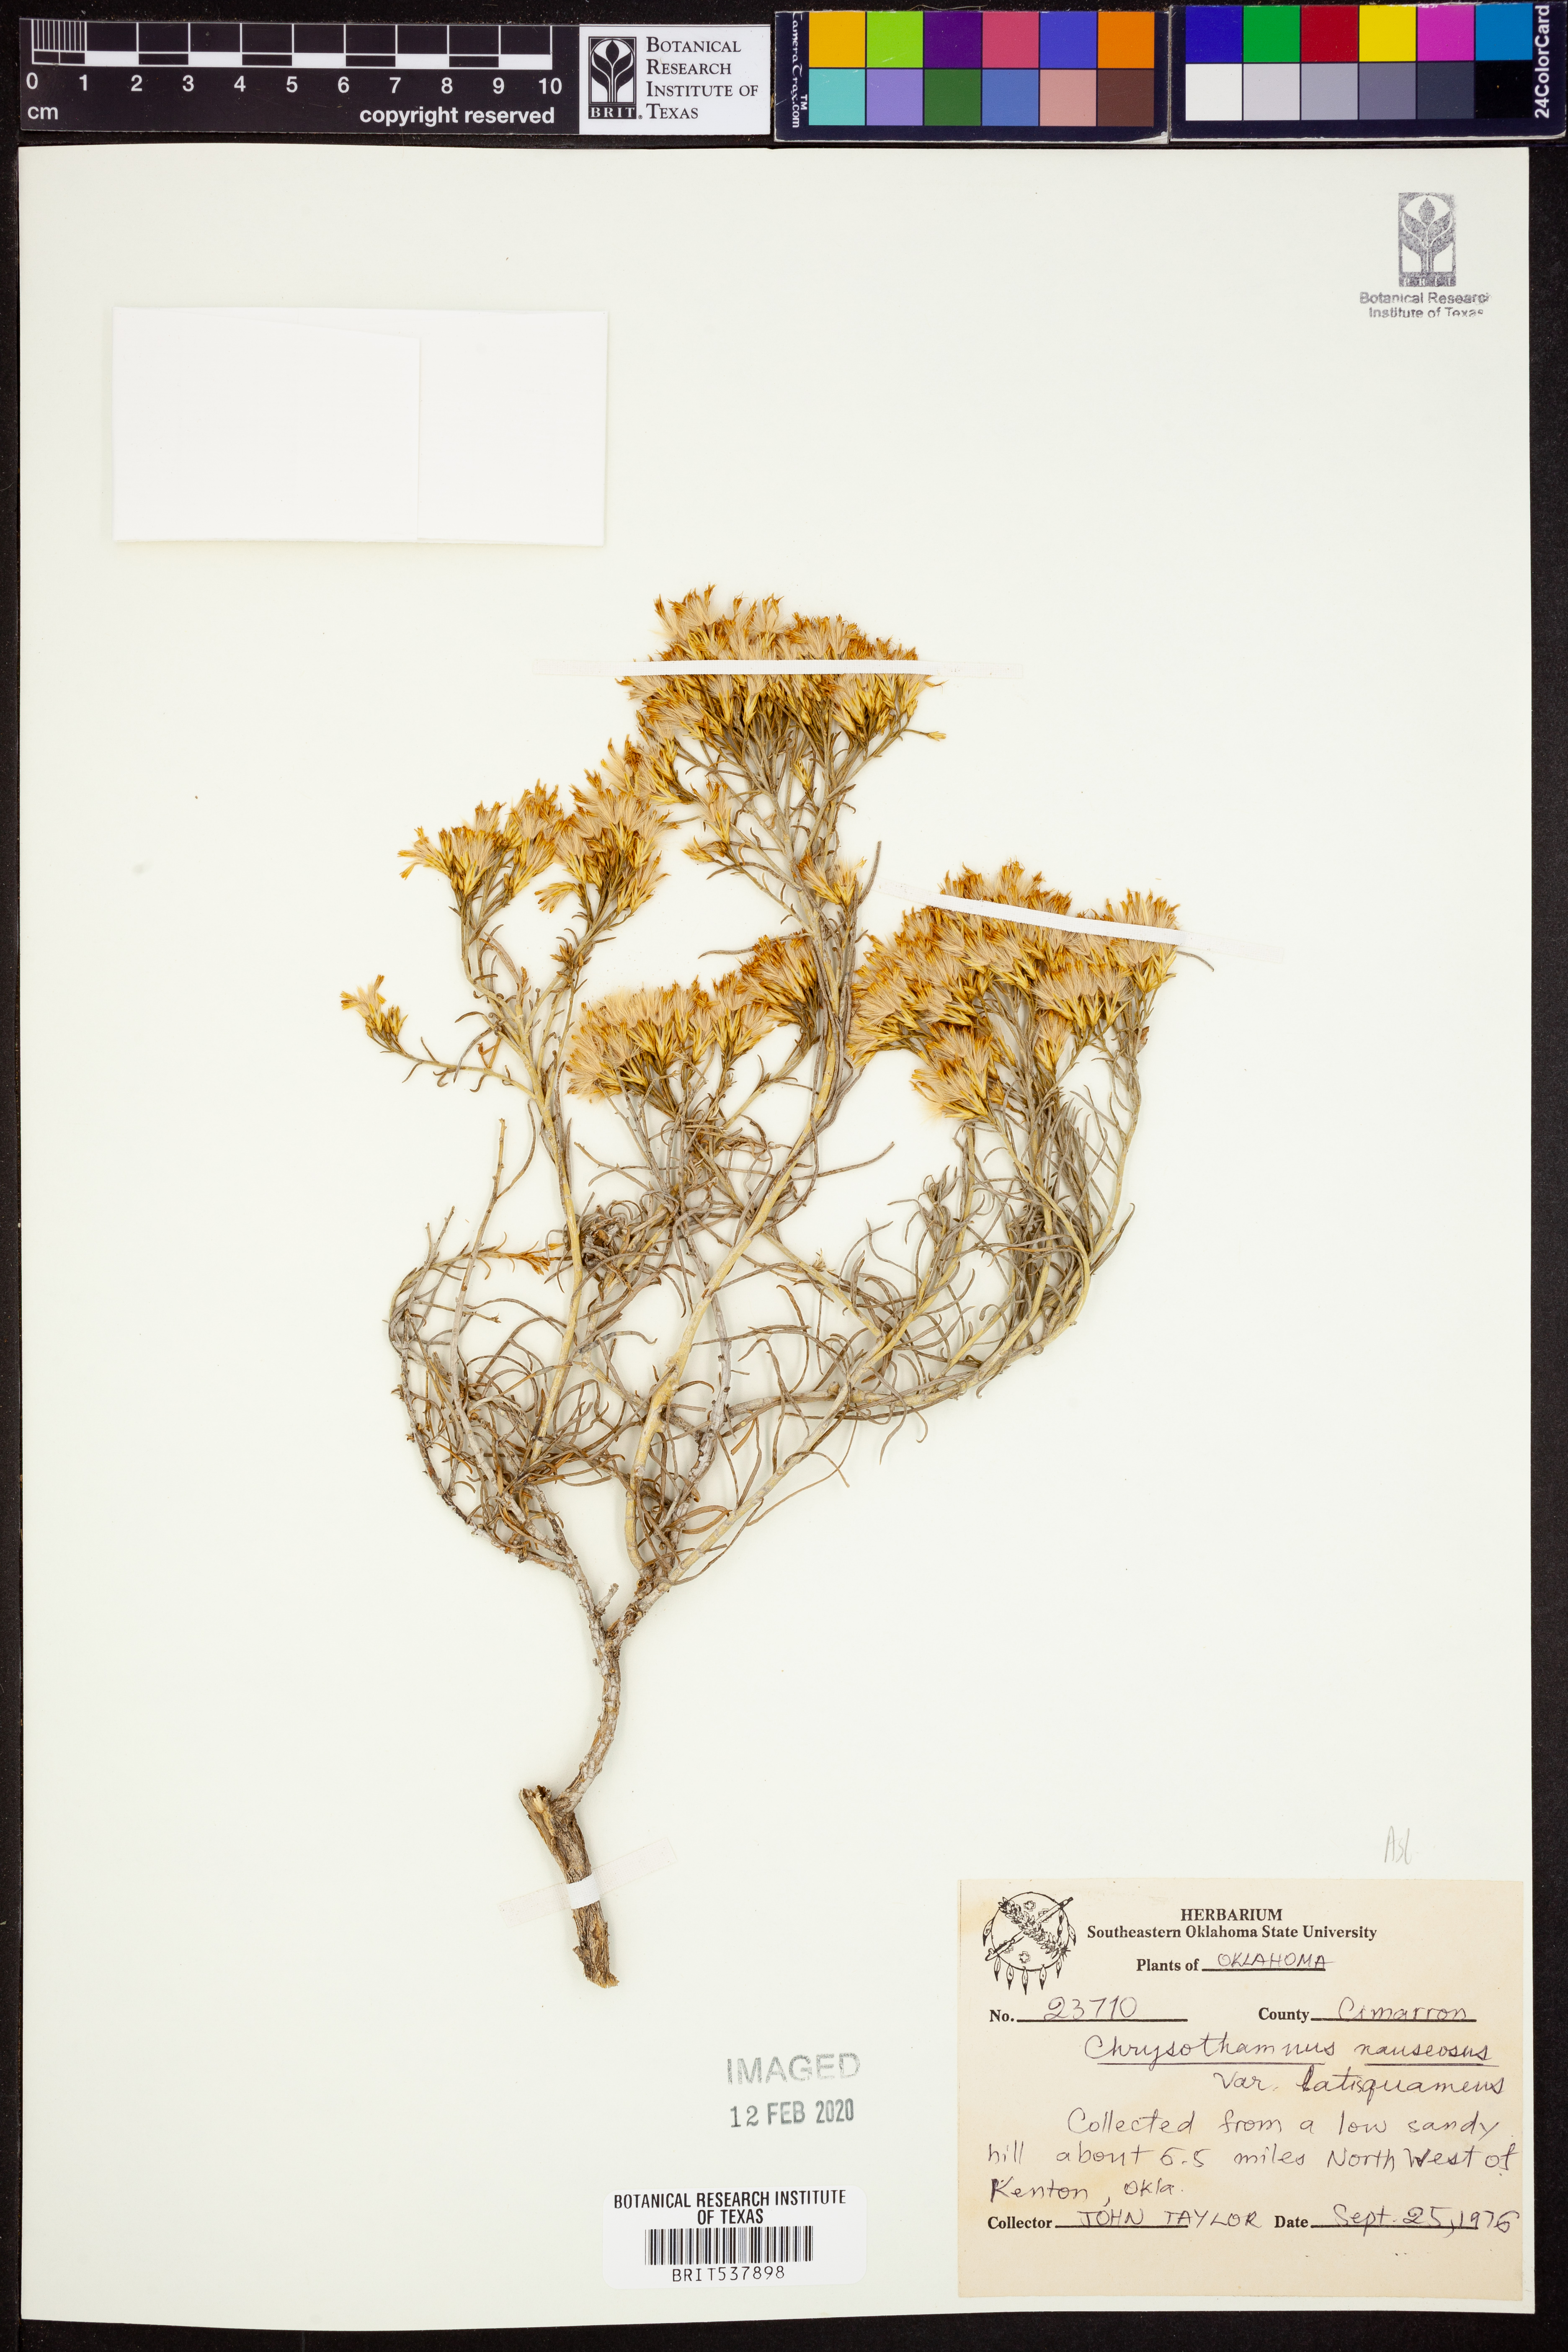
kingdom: Plantae
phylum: Tracheophyta
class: Magnoliopsida
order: Asterales
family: Asteraceae
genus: Ericameria
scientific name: Ericameria nauseosa
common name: Rubber rabbitbrush
